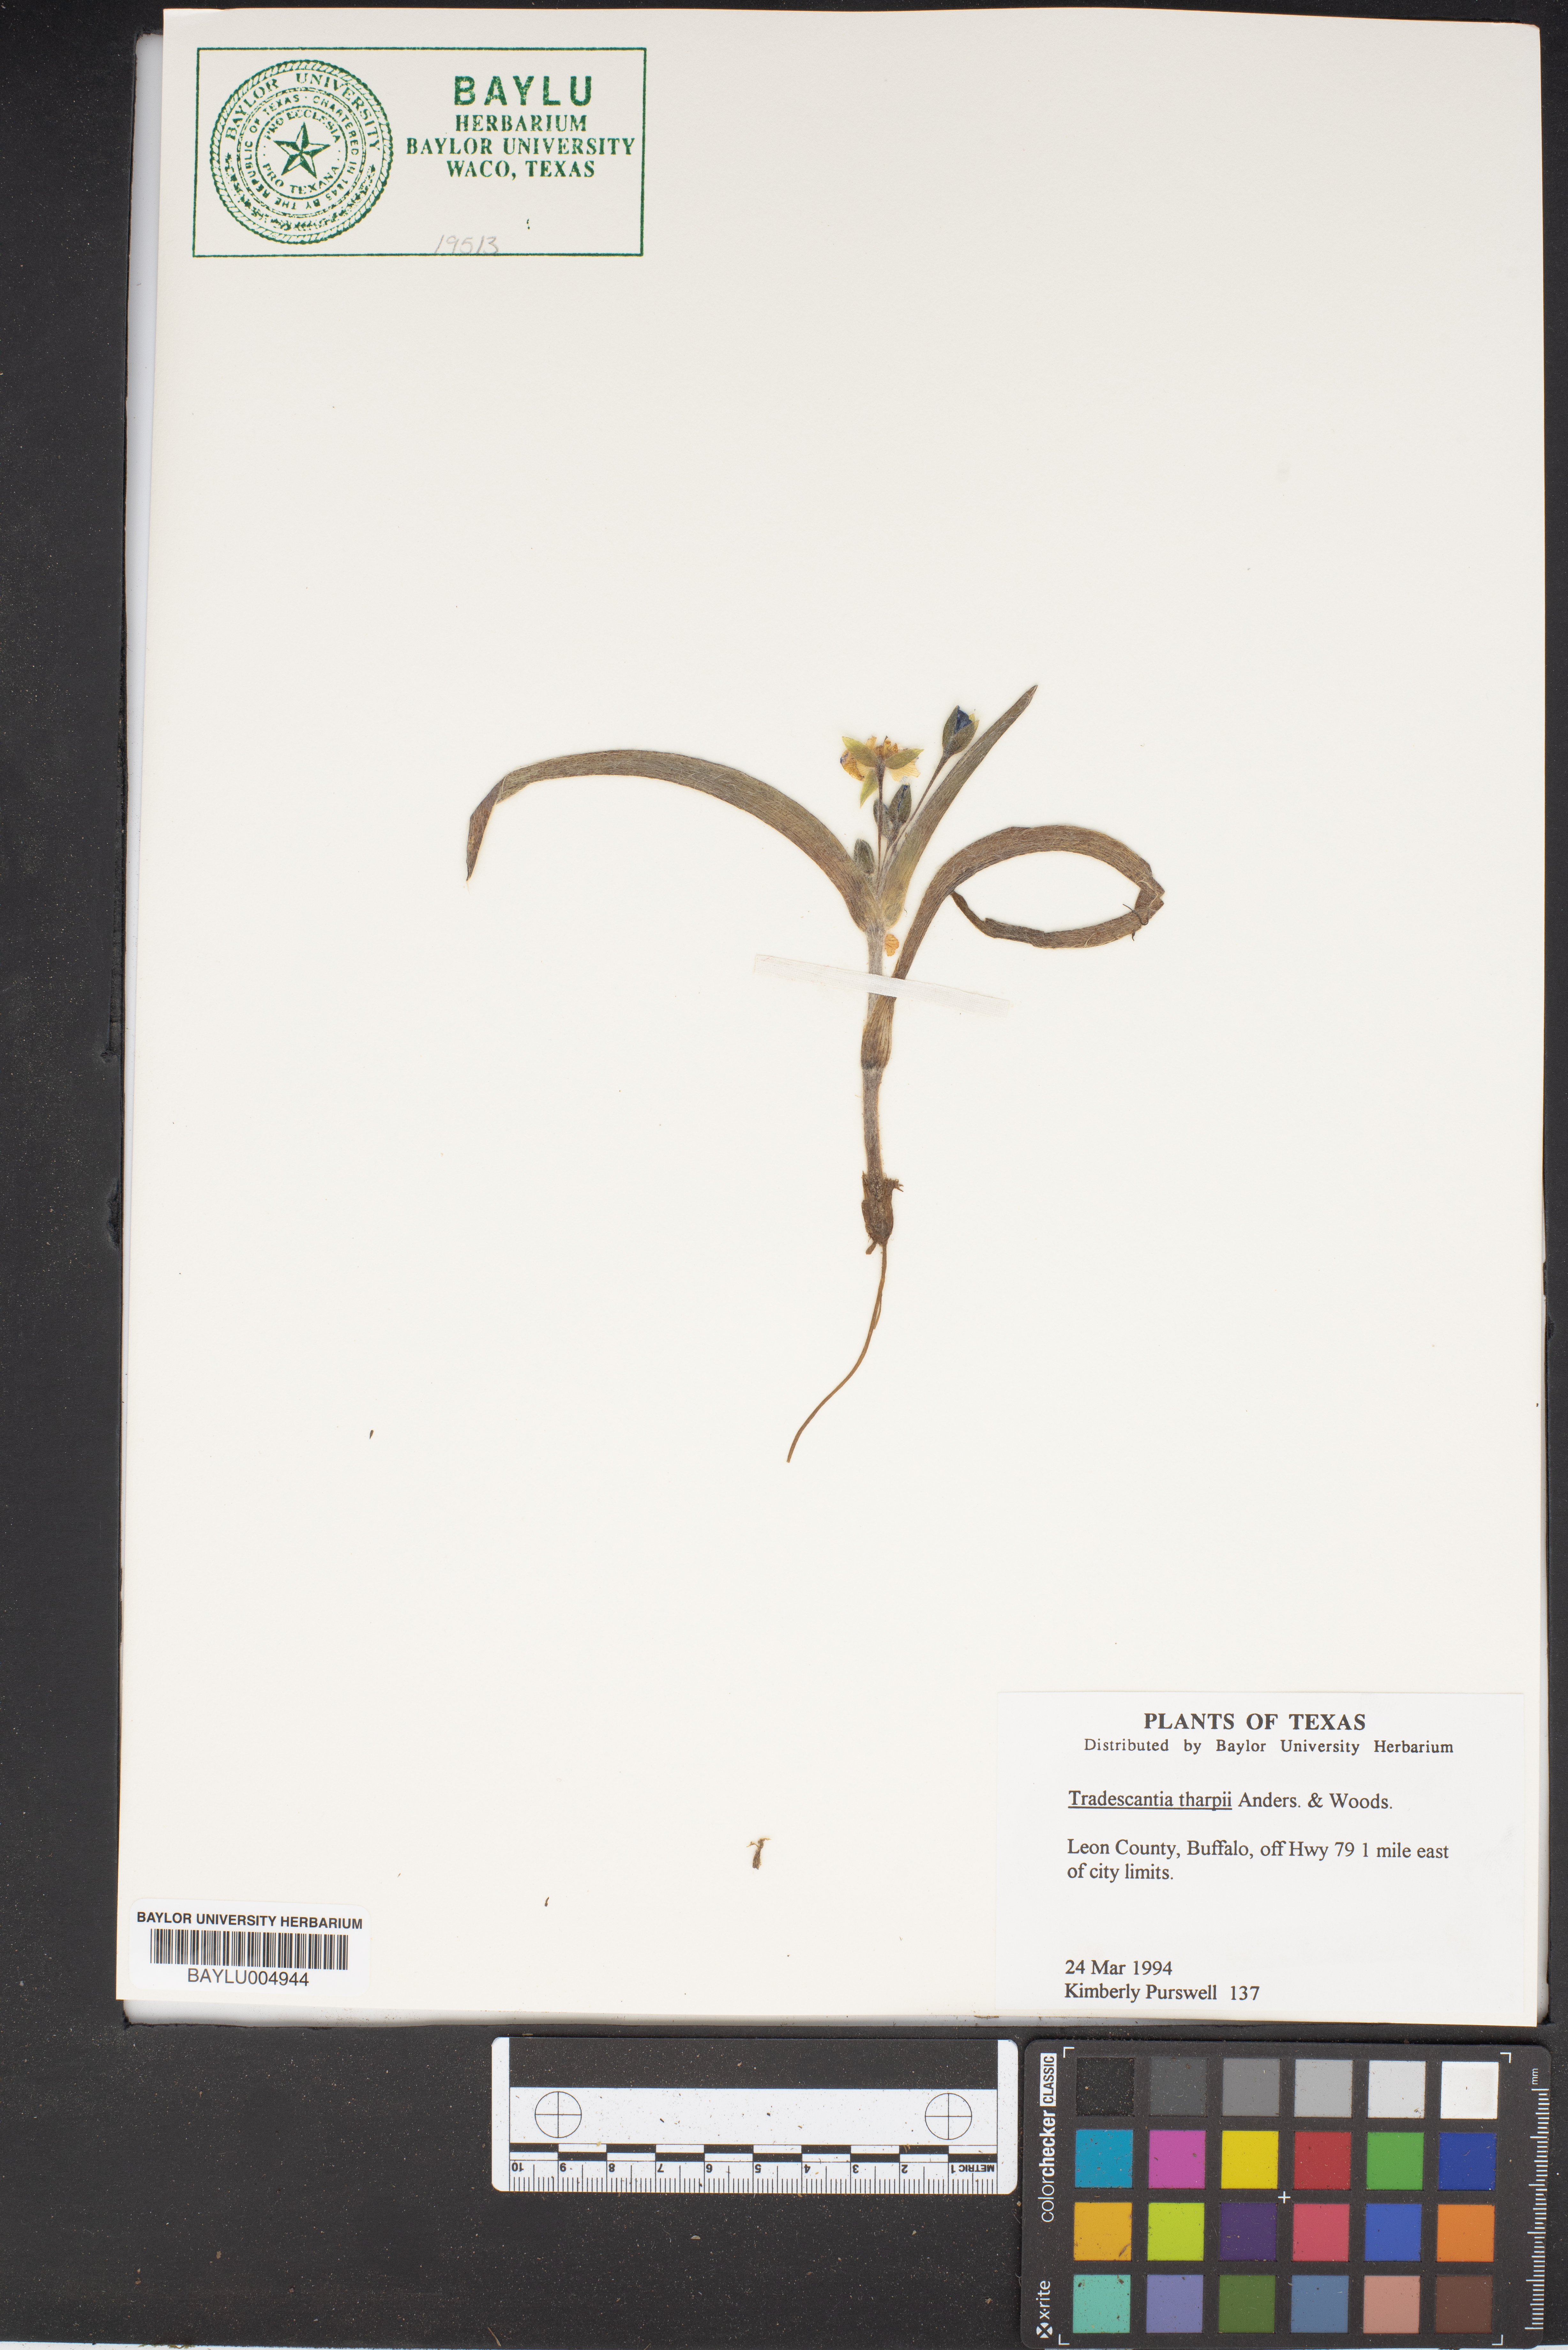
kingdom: Plantae
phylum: Tracheophyta
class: Liliopsida
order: Commelinales
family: Commelinaceae
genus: Tradescantia
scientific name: Tradescantia tharpii
